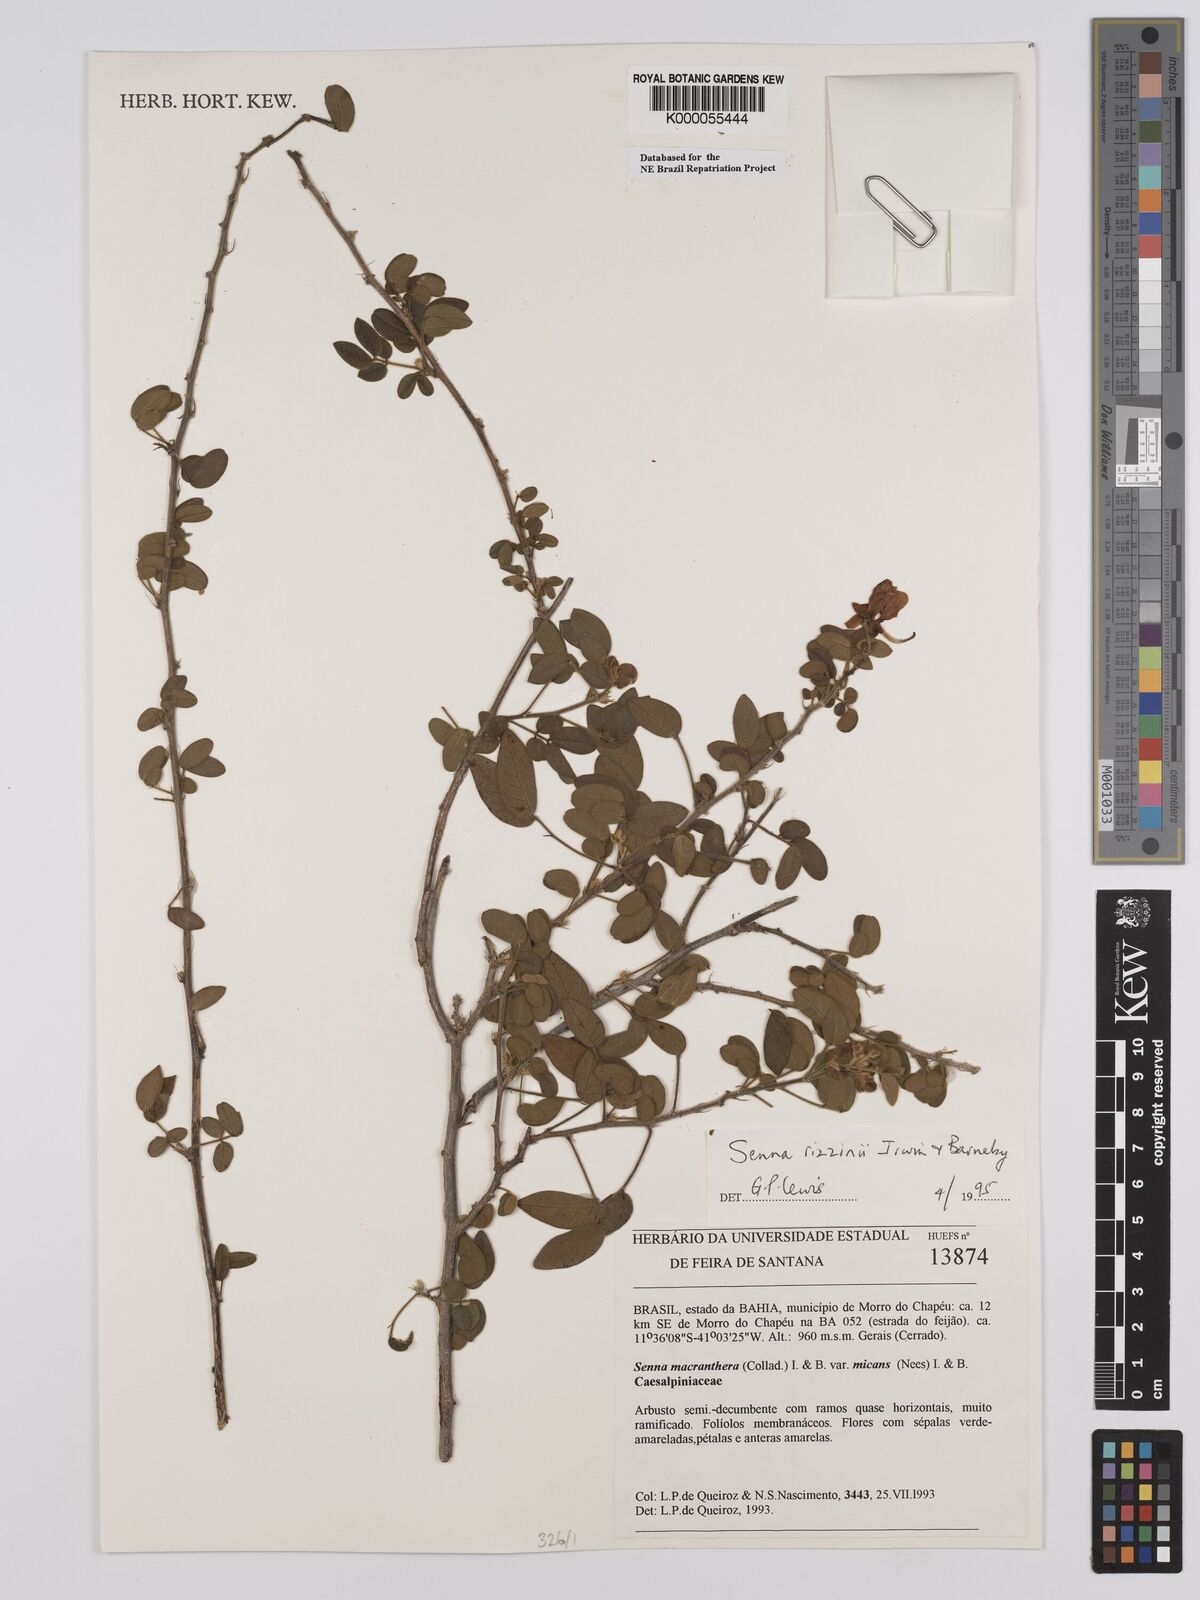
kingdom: Plantae
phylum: Tracheophyta
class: Magnoliopsida
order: Fabales
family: Fabaceae
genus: Senna
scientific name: Senna rizzinii
